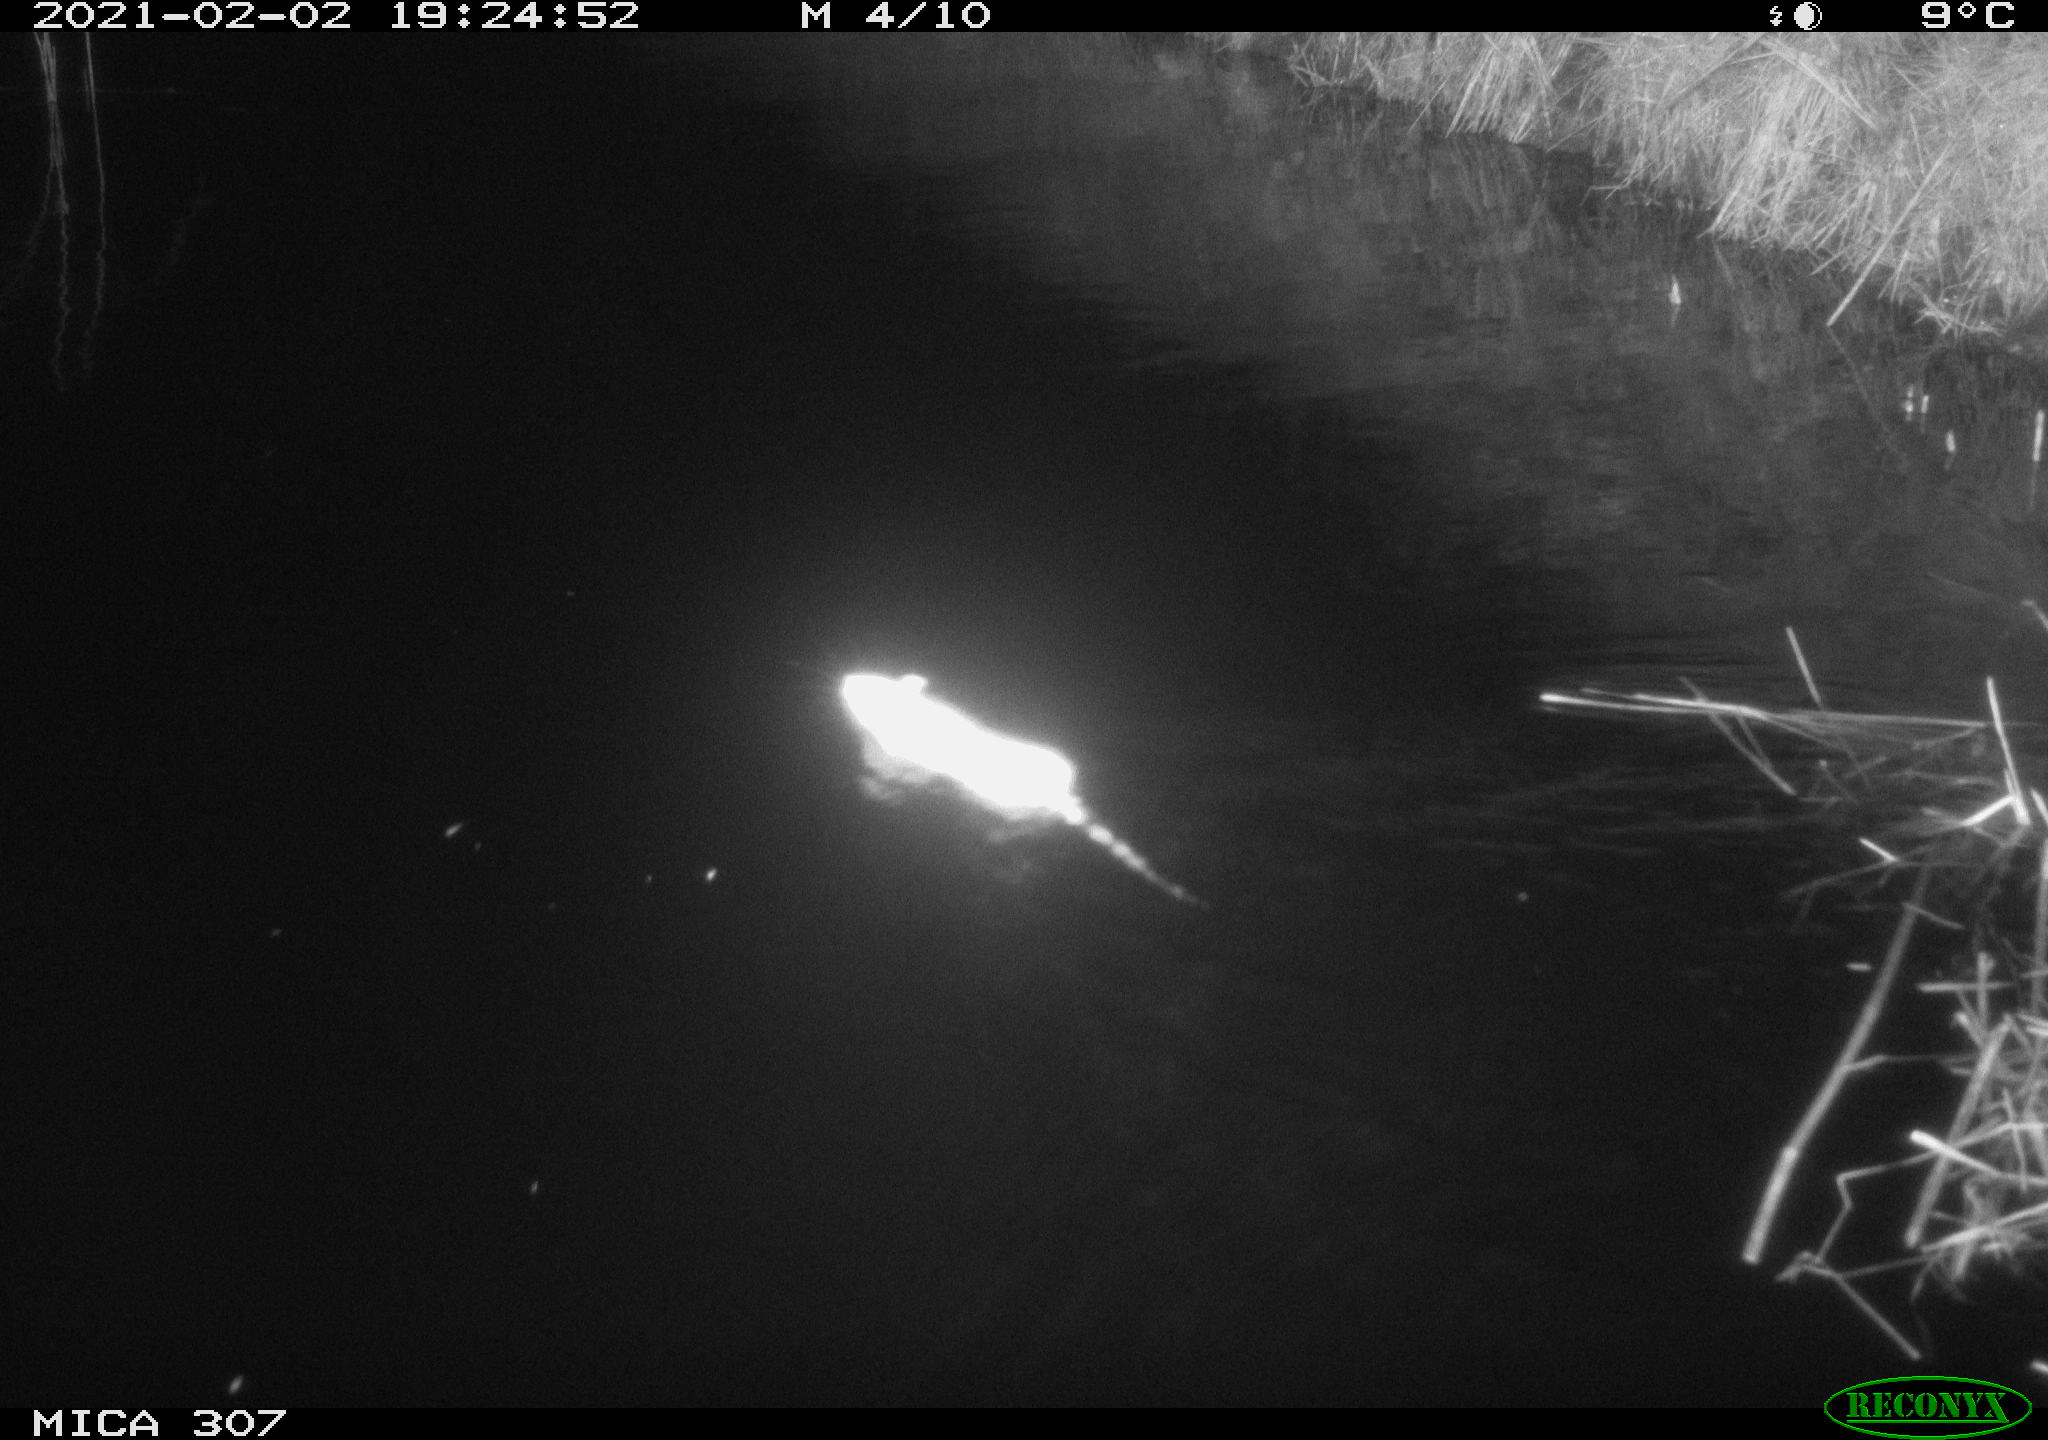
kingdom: Animalia
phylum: Chordata
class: Mammalia
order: Rodentia
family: Muridae
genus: Rattus
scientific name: Rattus norvegicus
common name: Brown rat
